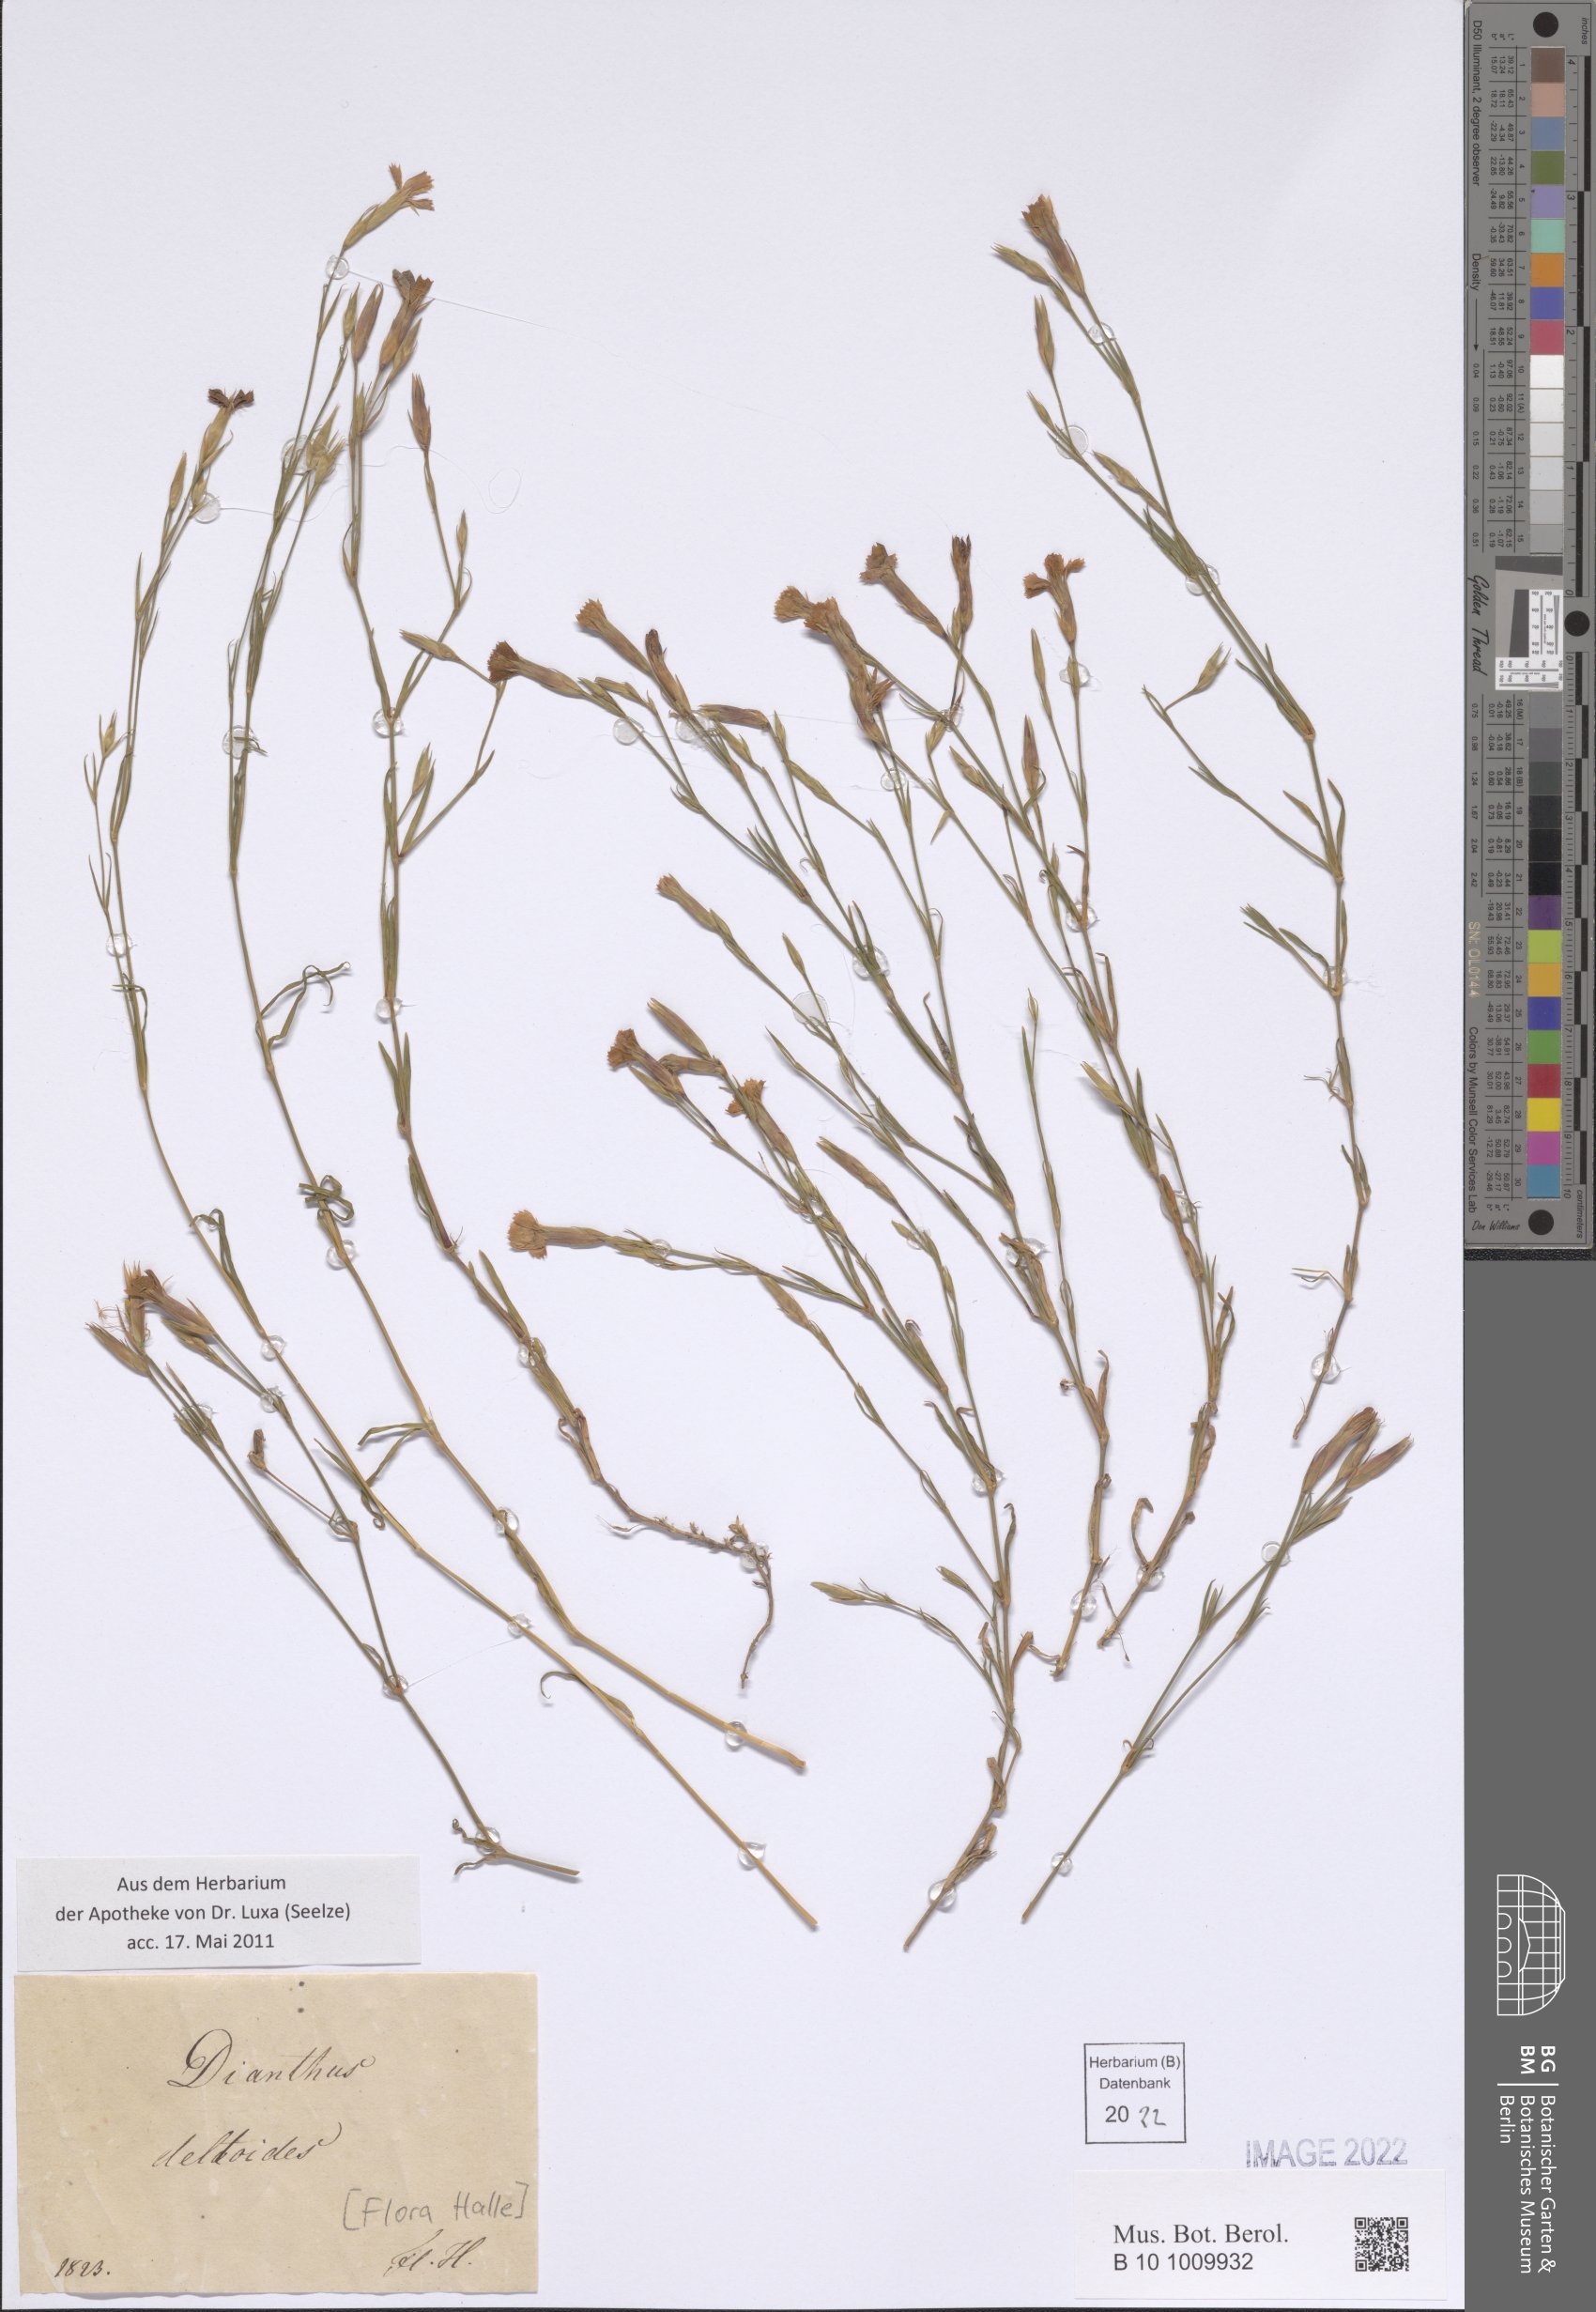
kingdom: Plantae
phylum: Tracheophyta
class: Magnoliopsida
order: Caryophyllales
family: Caryophyllaceae
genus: Dianthus
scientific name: Dianthus deltoides
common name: Maiden pink
